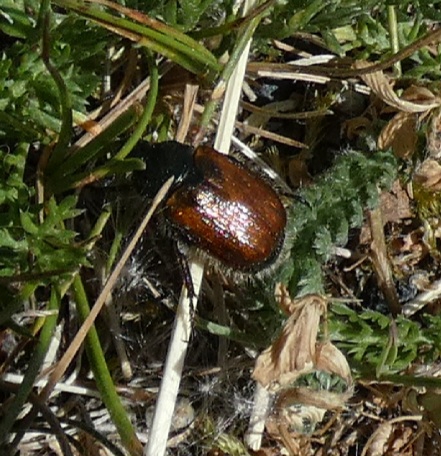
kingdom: Animalia
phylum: Arthropoda
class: Insecta
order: Coleoptera
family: Scarabaeidae
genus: Phyllopertha
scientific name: Phyllopertha horticola
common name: Gåsebille
